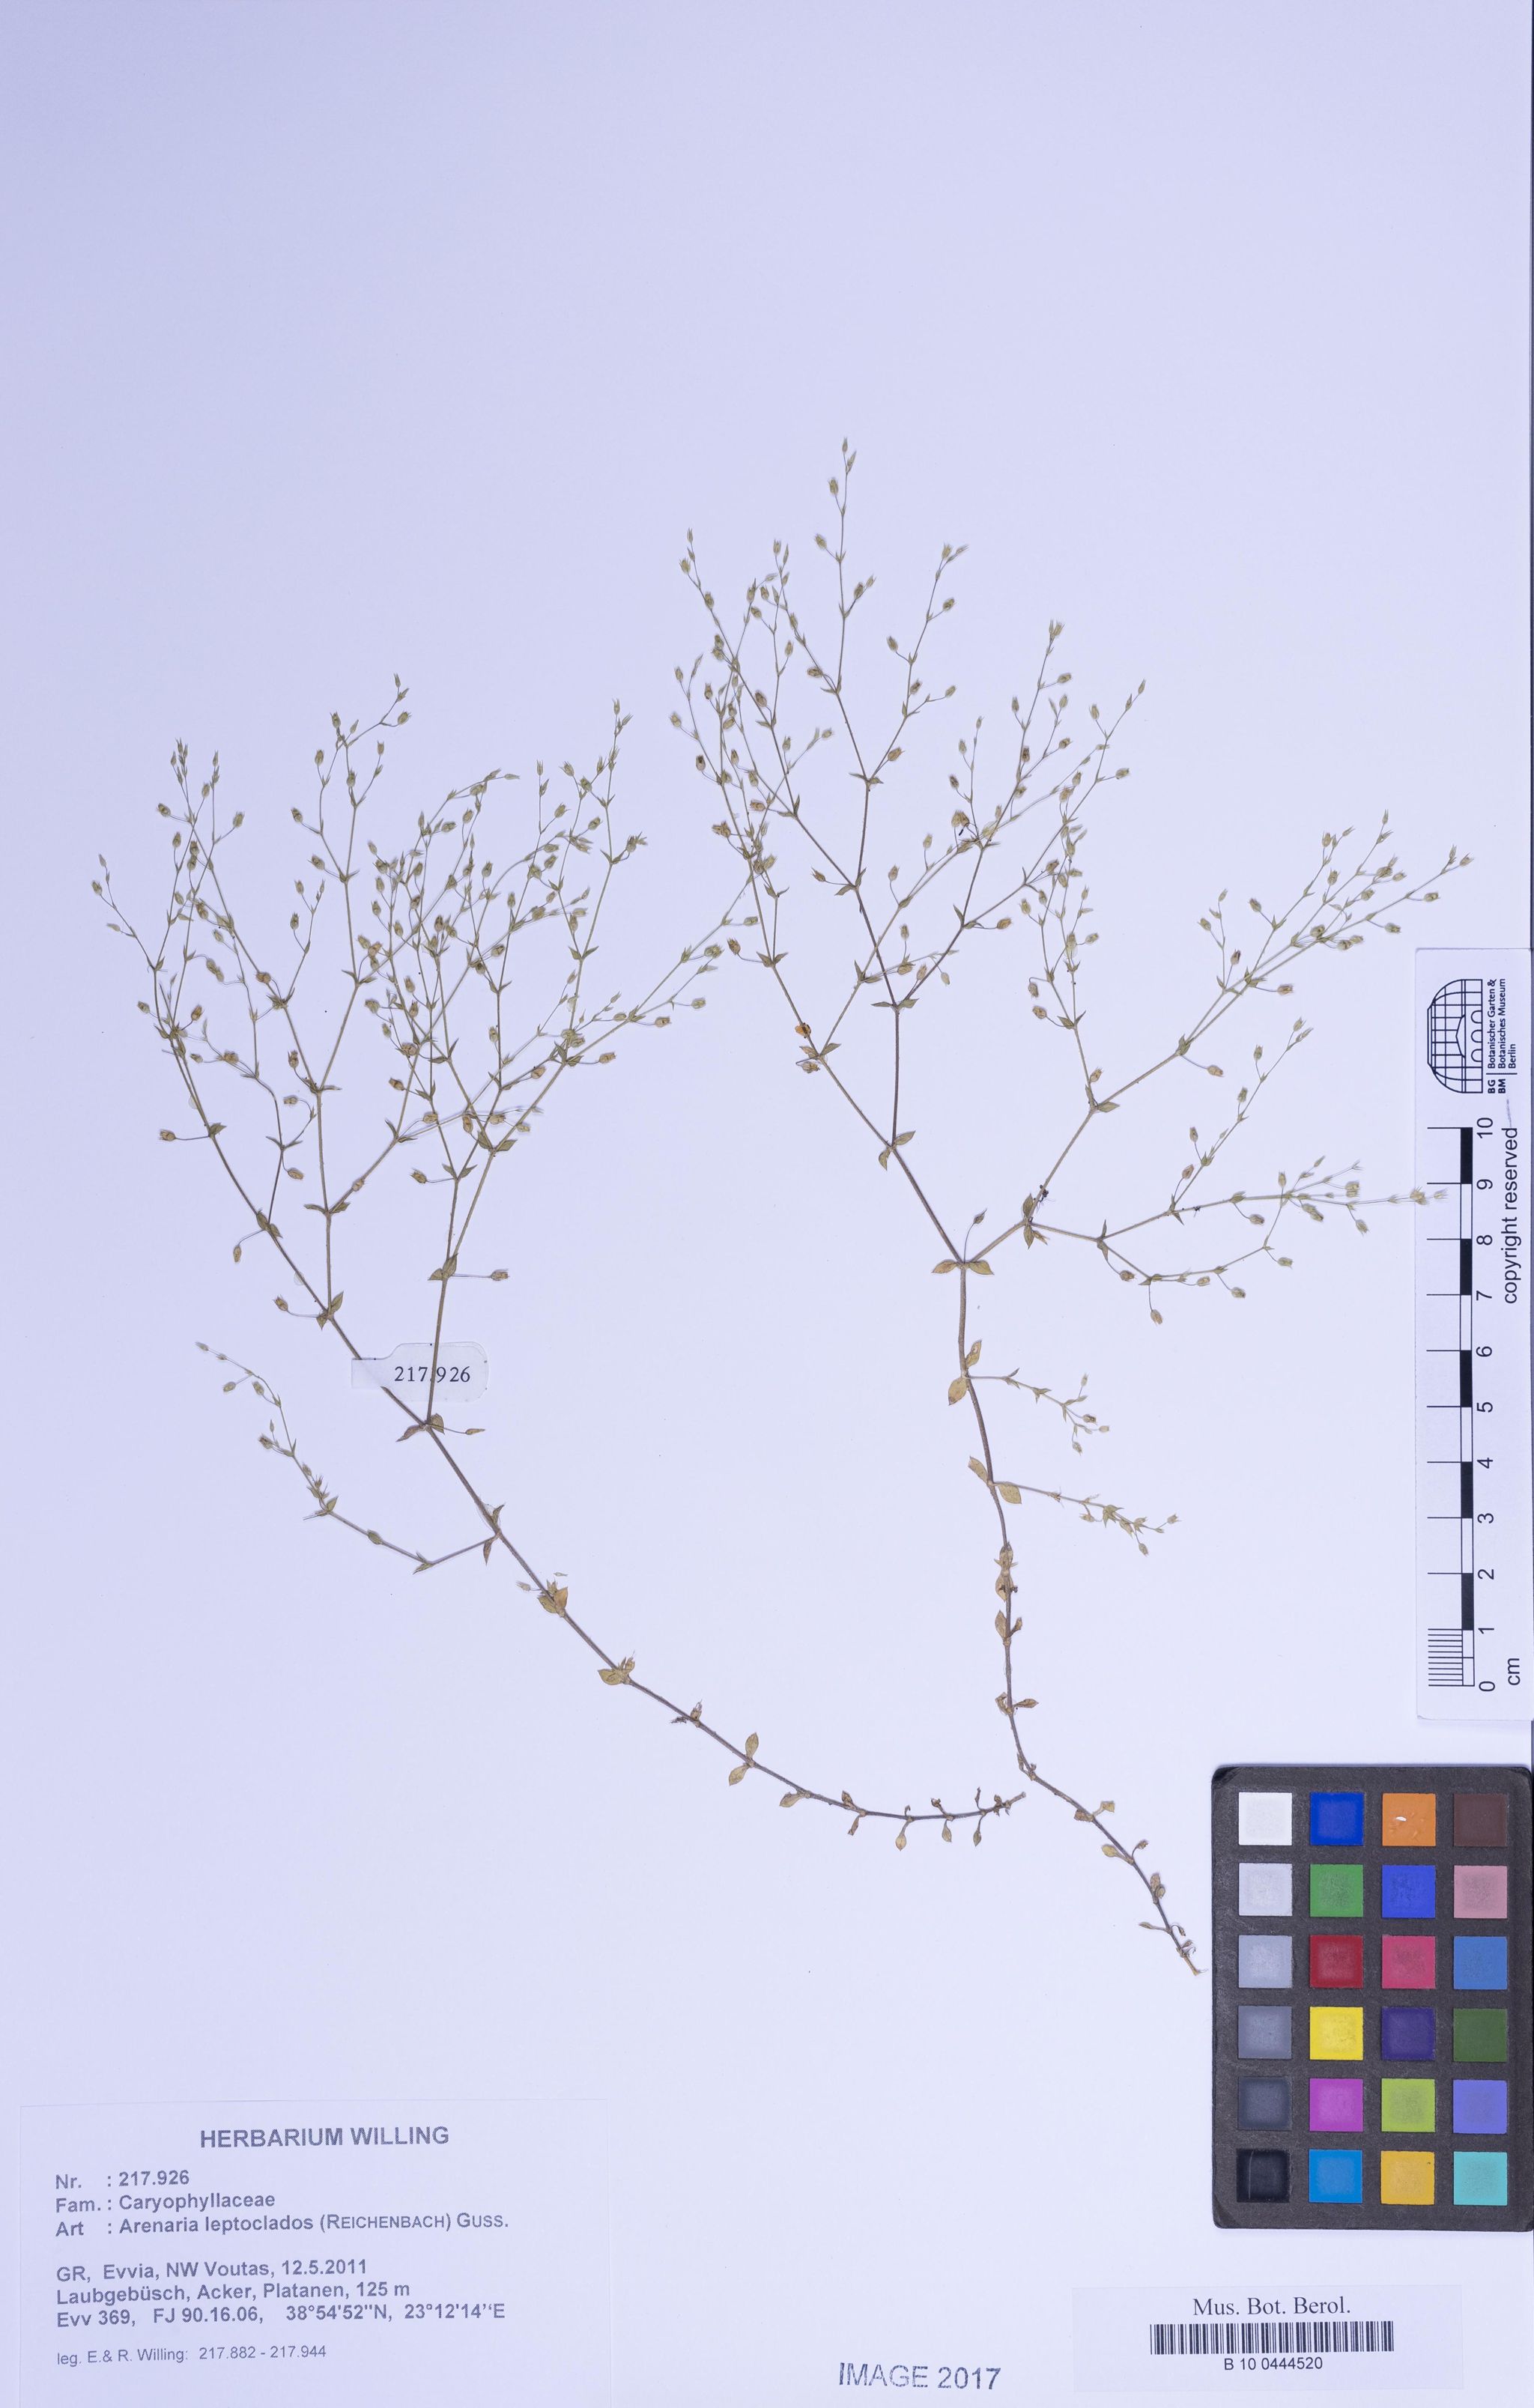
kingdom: Plantae
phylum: Tracheophyta
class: Magnoliopsida
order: Caryophyllales
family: Caryophyllaceae
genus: Arenaria
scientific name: Arenaria leptoclados
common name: Thyme-leaved sandwort
